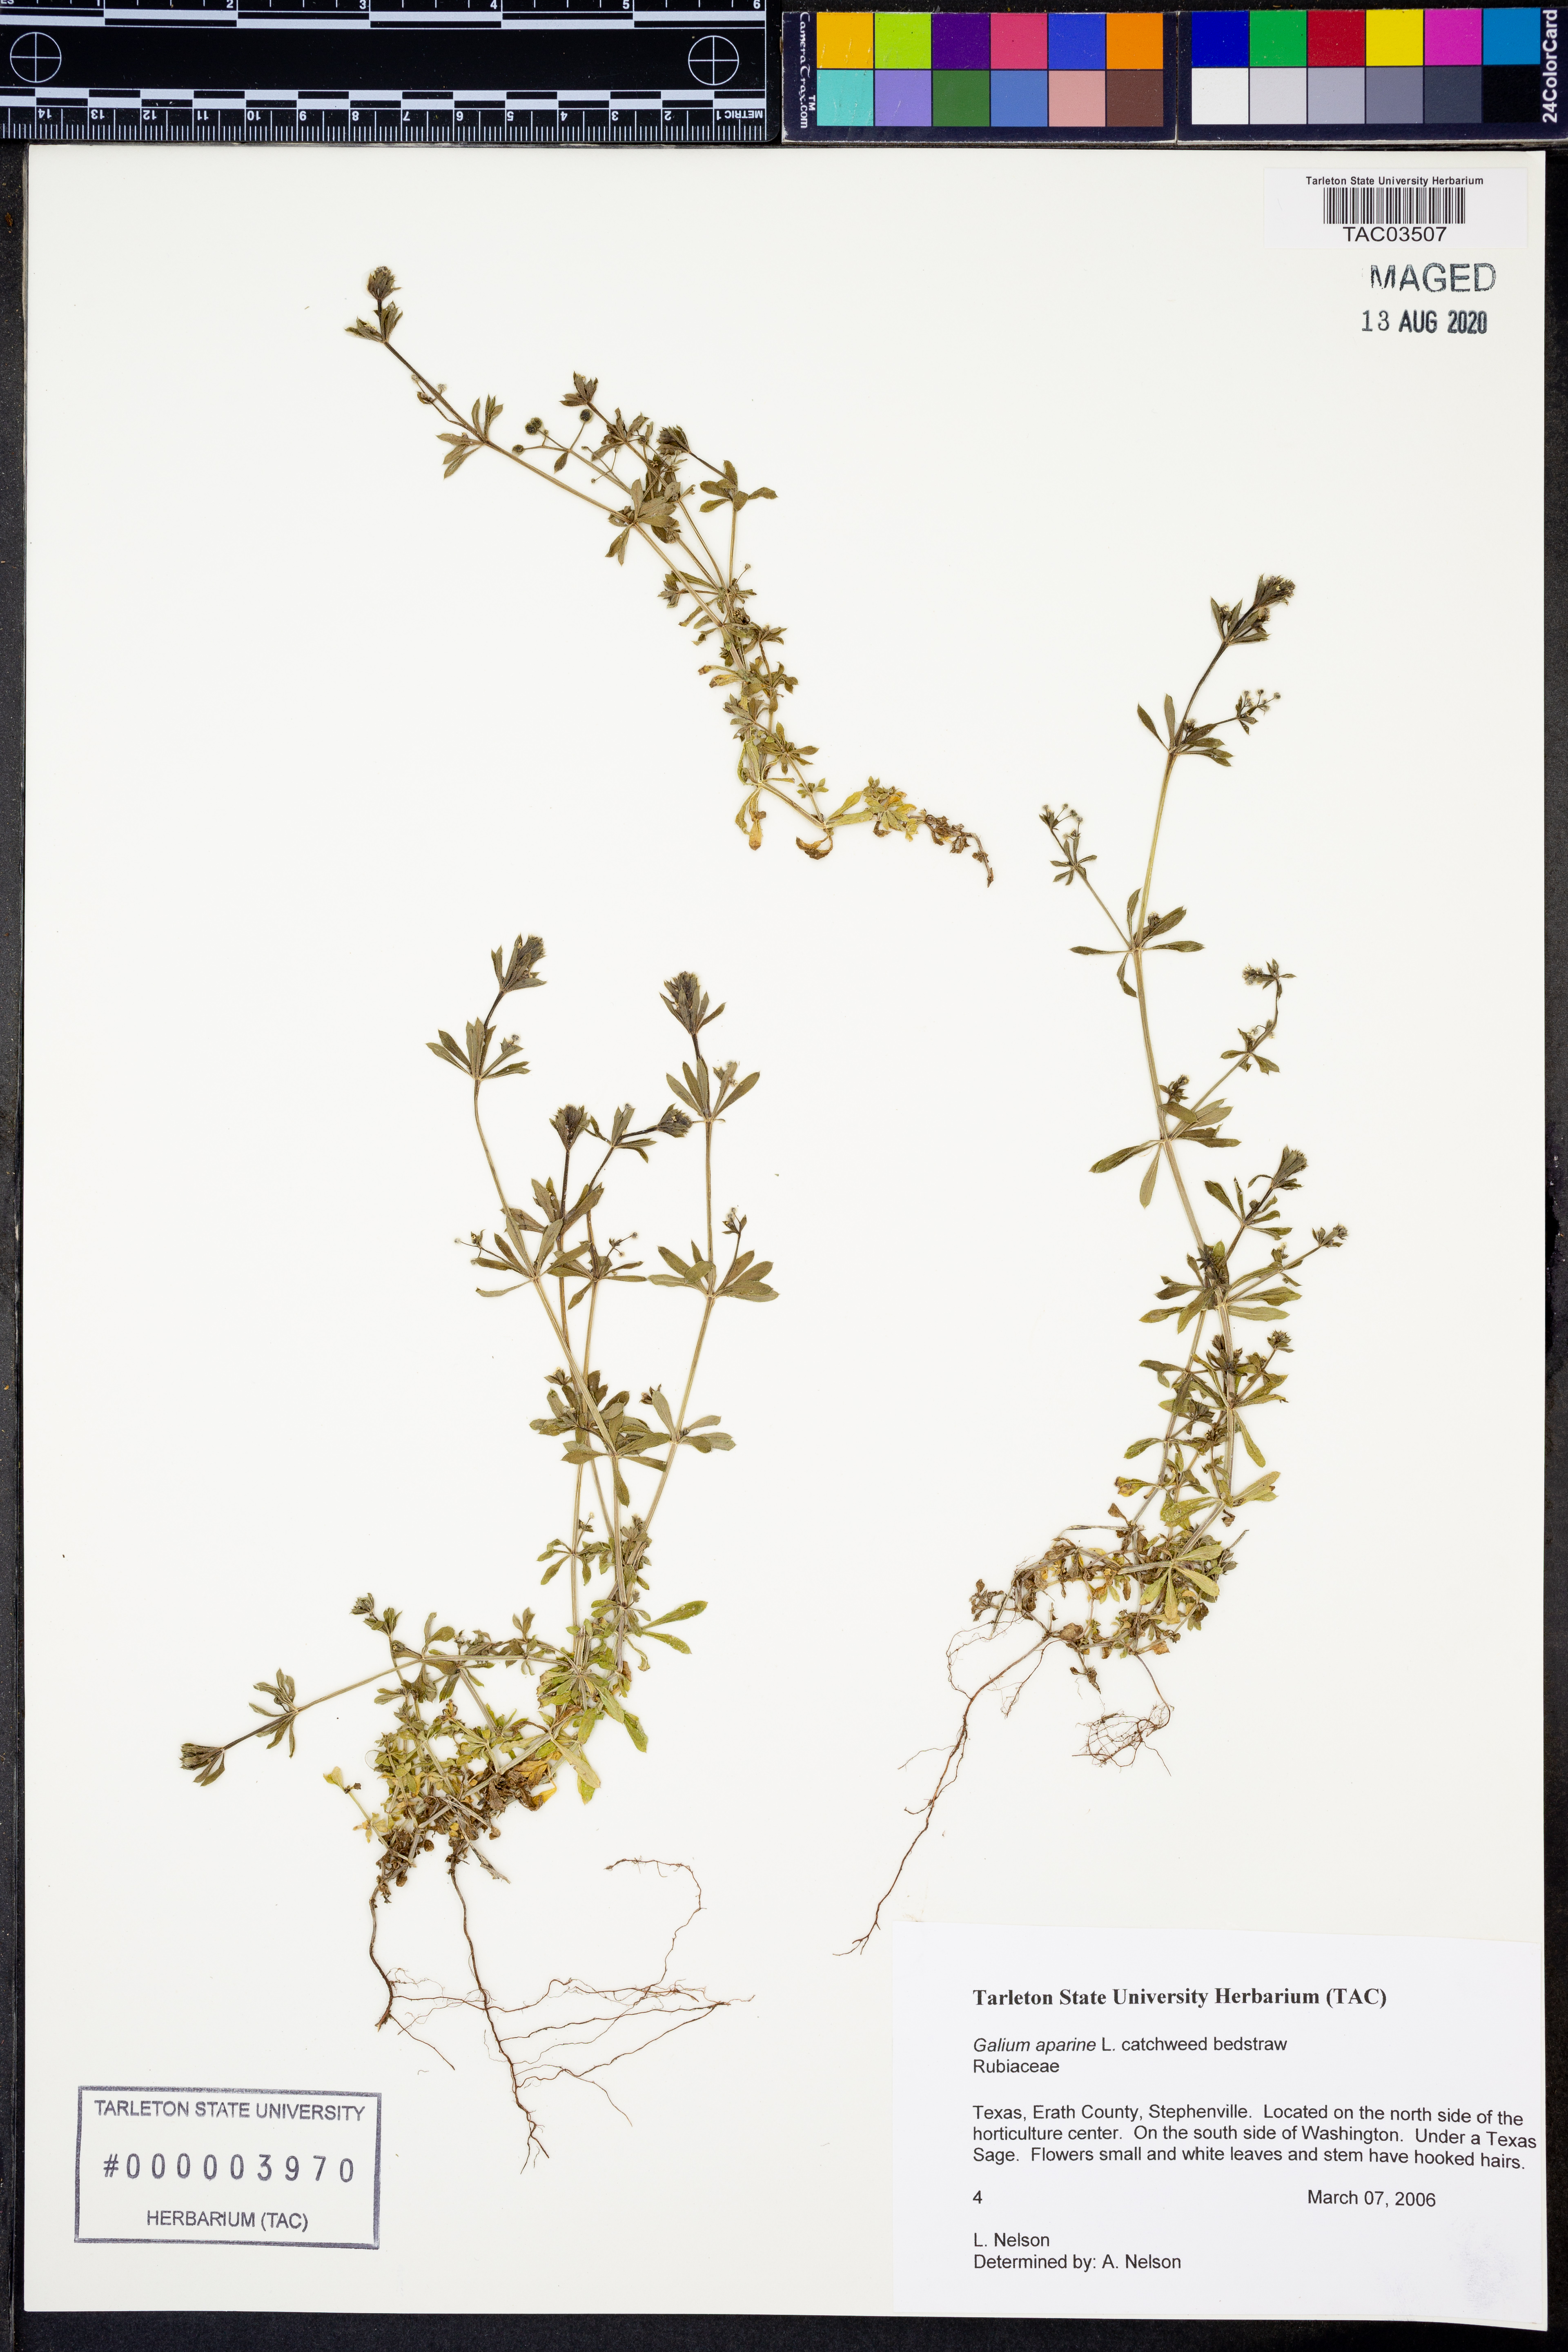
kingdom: Plantae
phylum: Tracheophyta
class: Magnoliopsida
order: Gentianales
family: Rubiaceae
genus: Galium
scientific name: Galium aparine
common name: Cleavers
